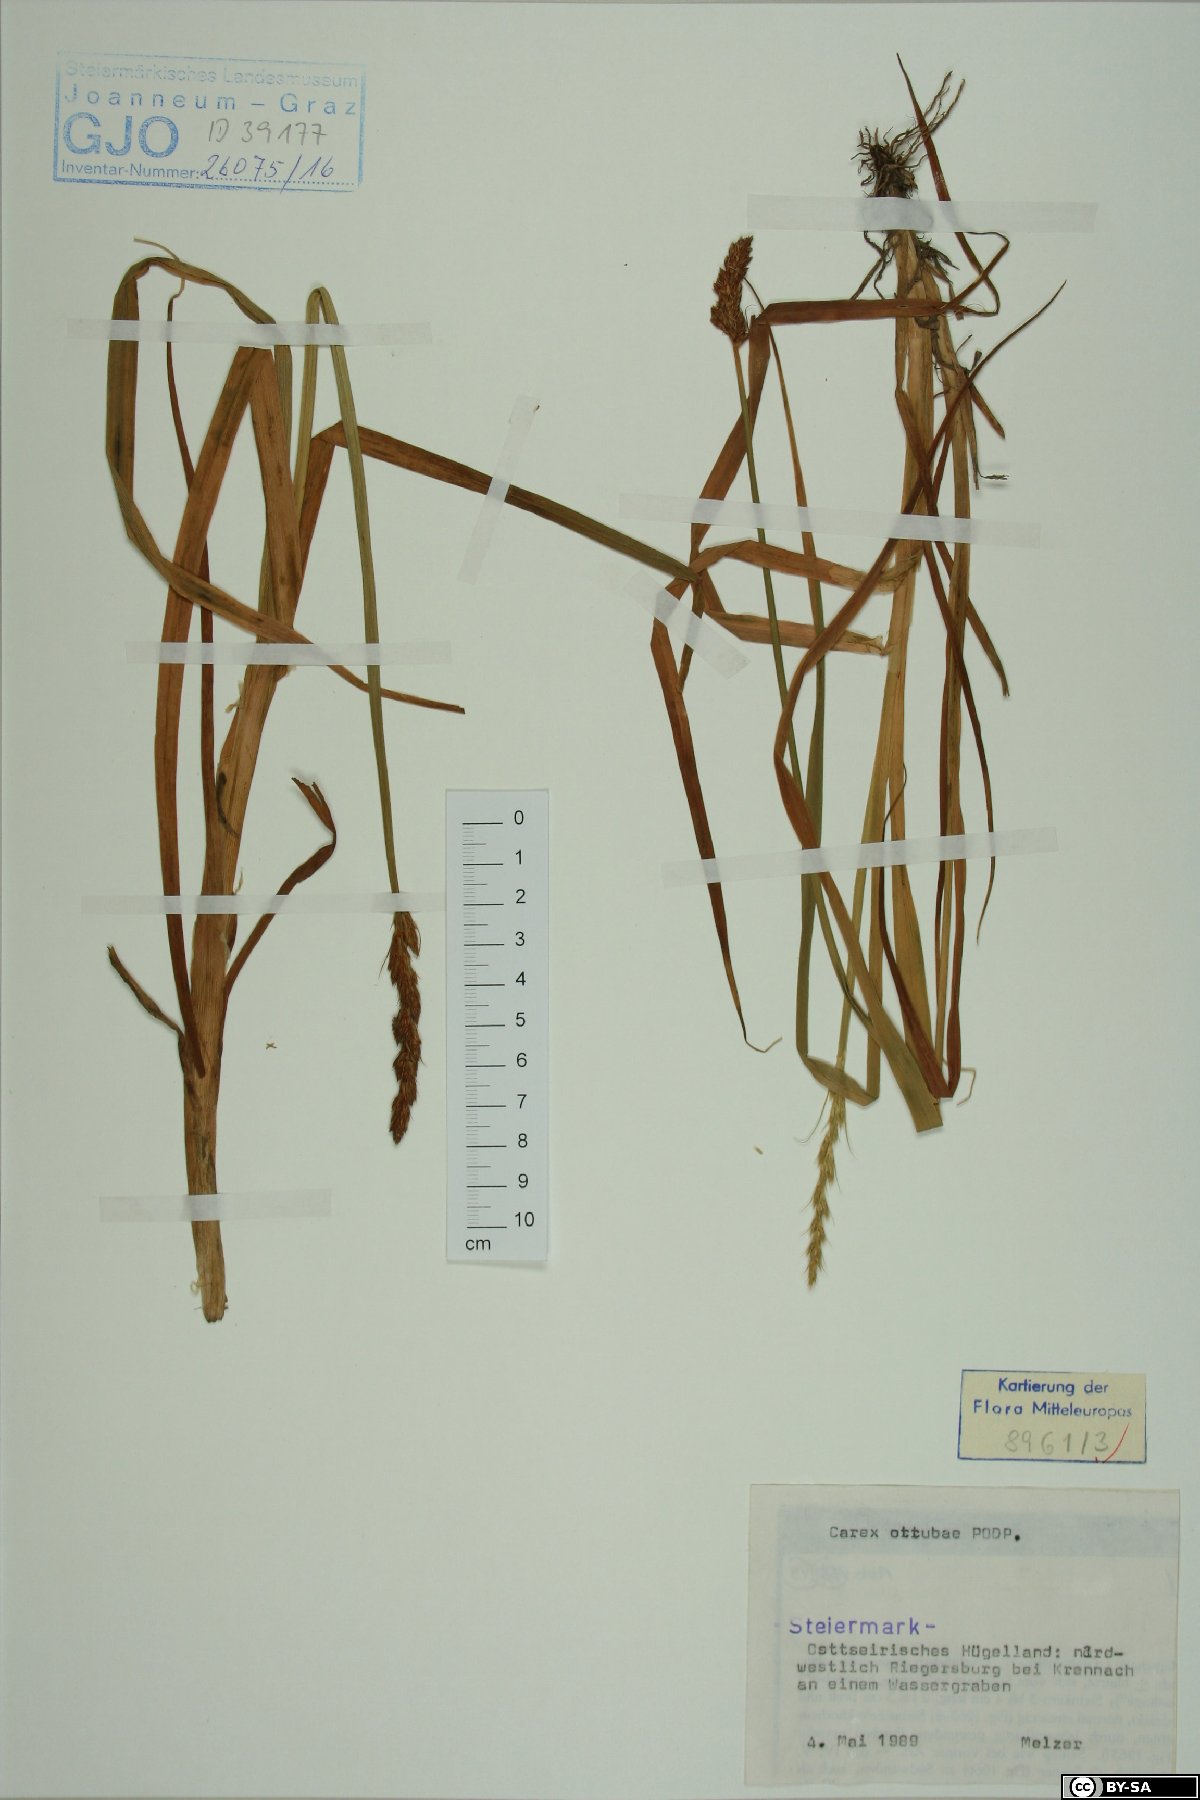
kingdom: Plantae
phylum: Tracheophyta
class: Liliopsida
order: Poales
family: Cyperaceae
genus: Carex
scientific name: Carex otrubae
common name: False fox-sedge
